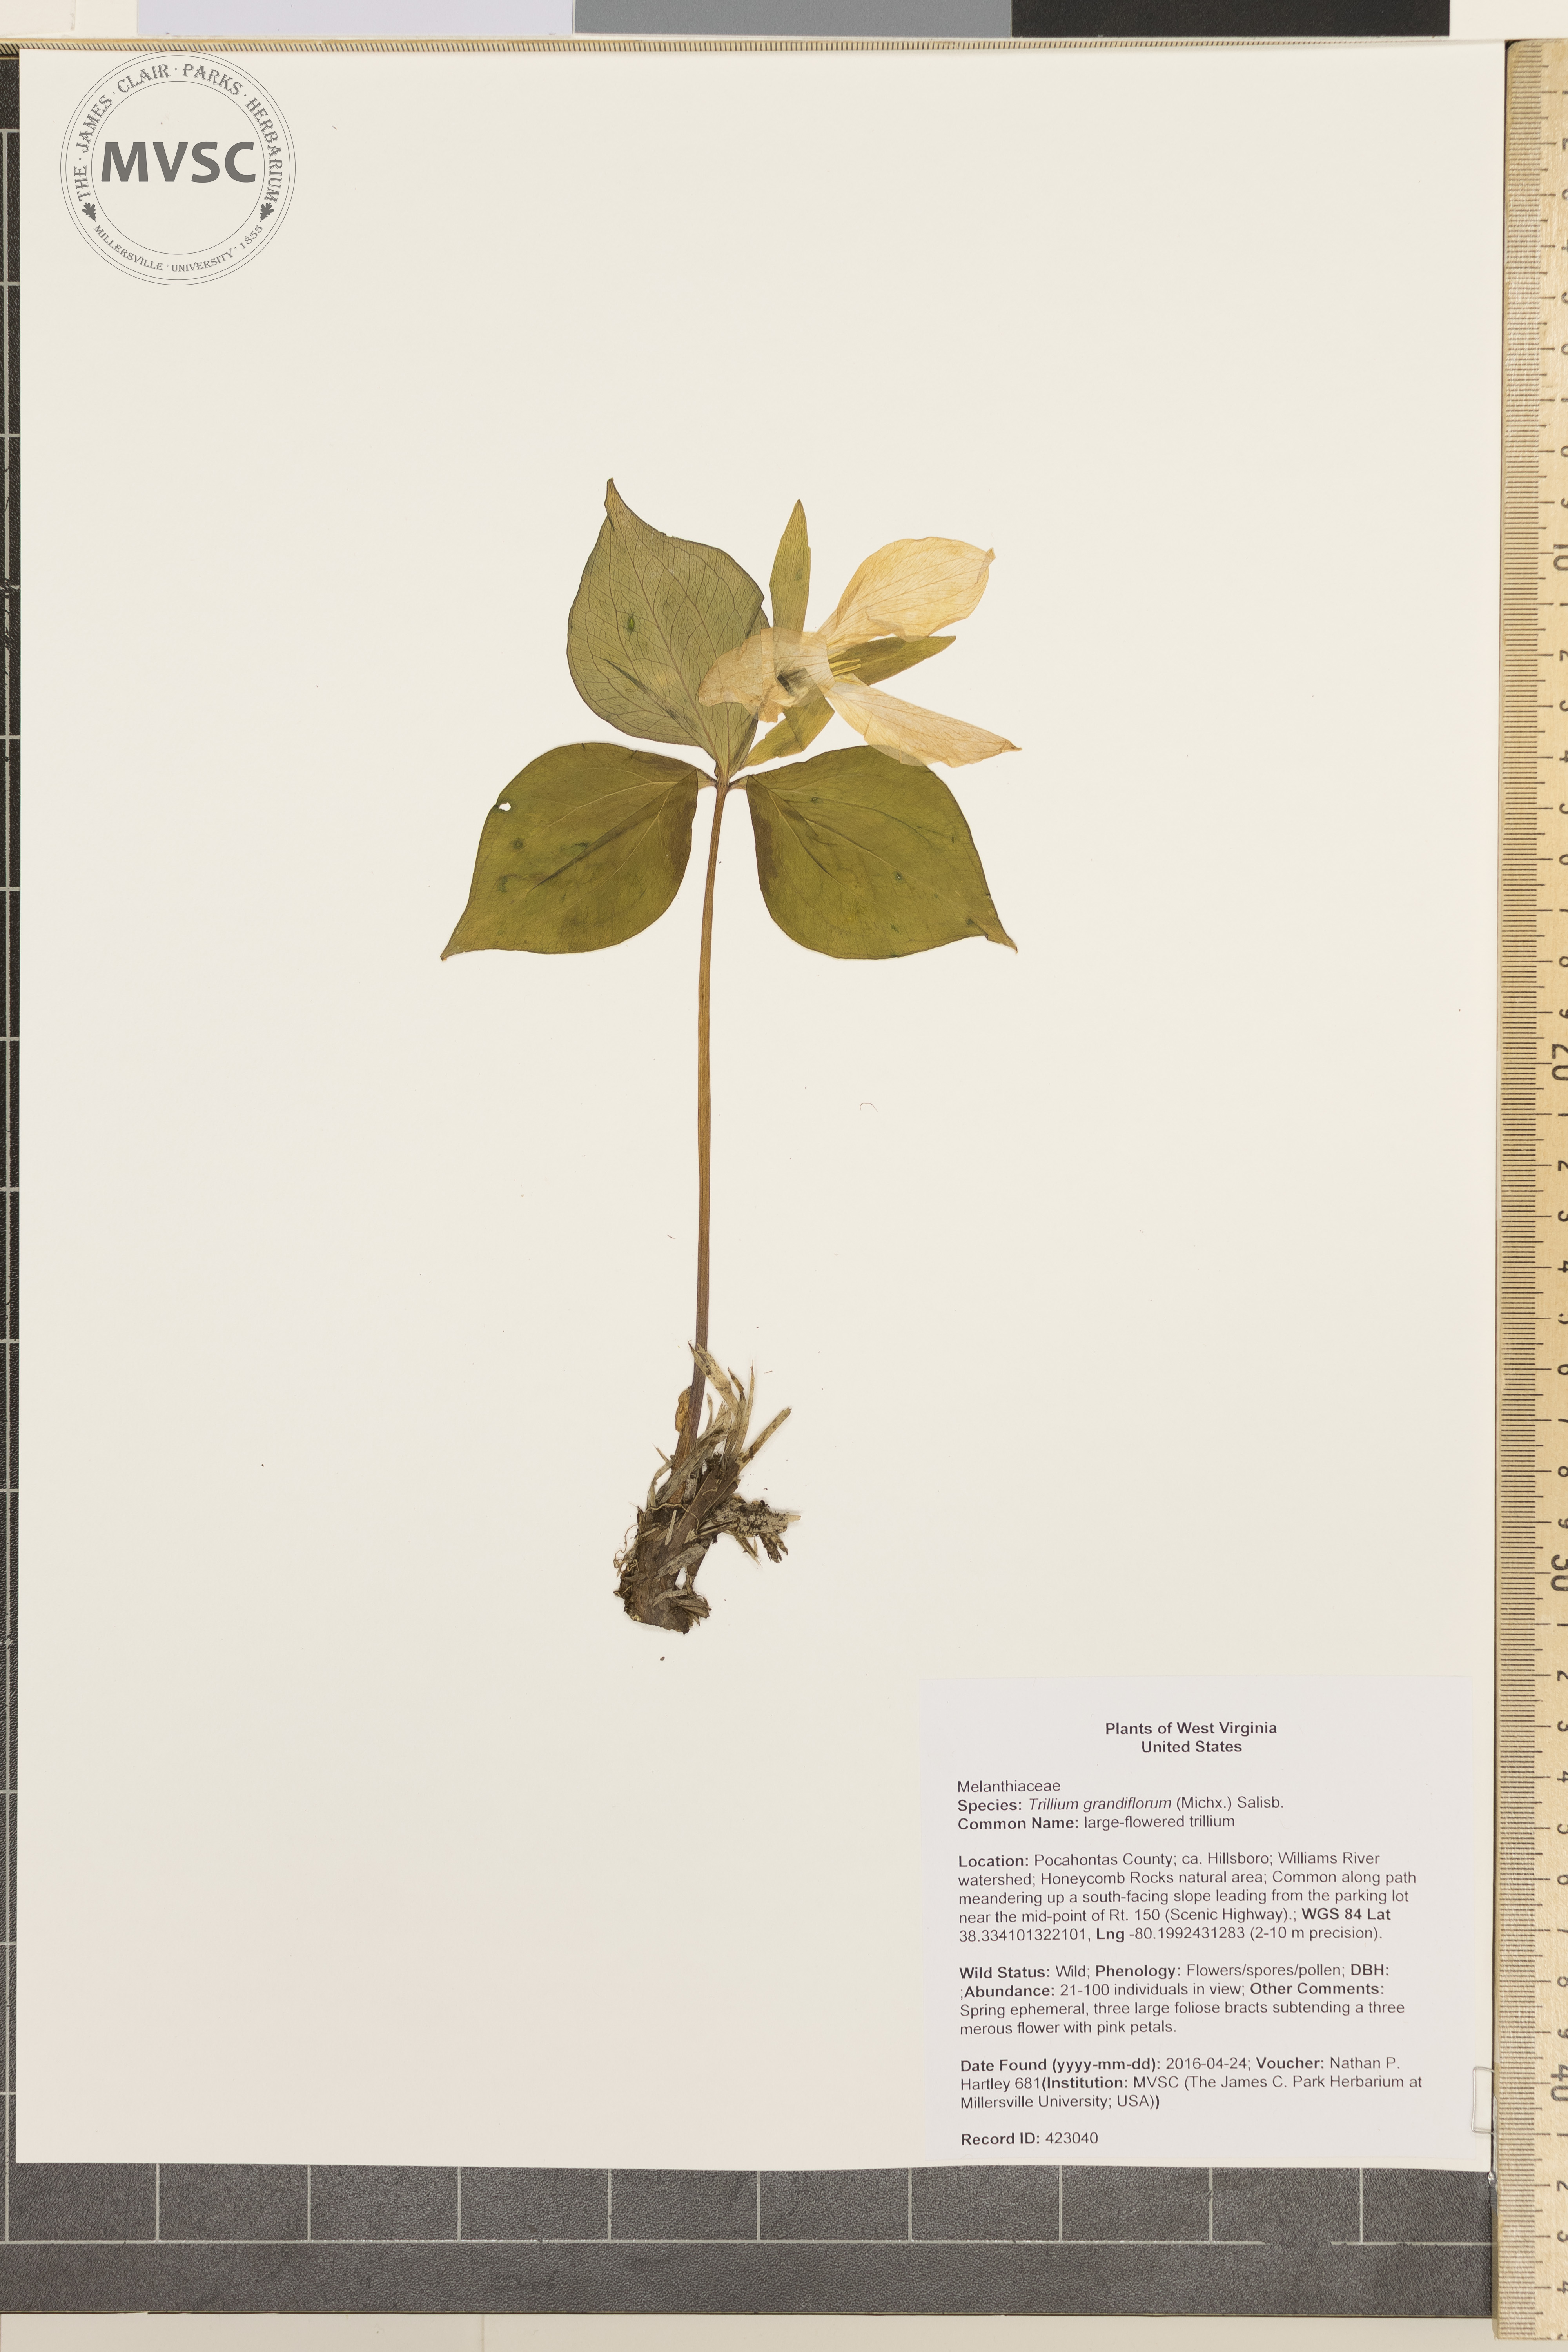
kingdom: Plantae
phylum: Tracheophyta
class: Liliopsida
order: Liliales
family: Melanthiaceae
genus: Trillium
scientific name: Trillium grandiflorum
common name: large-flowered trillium
